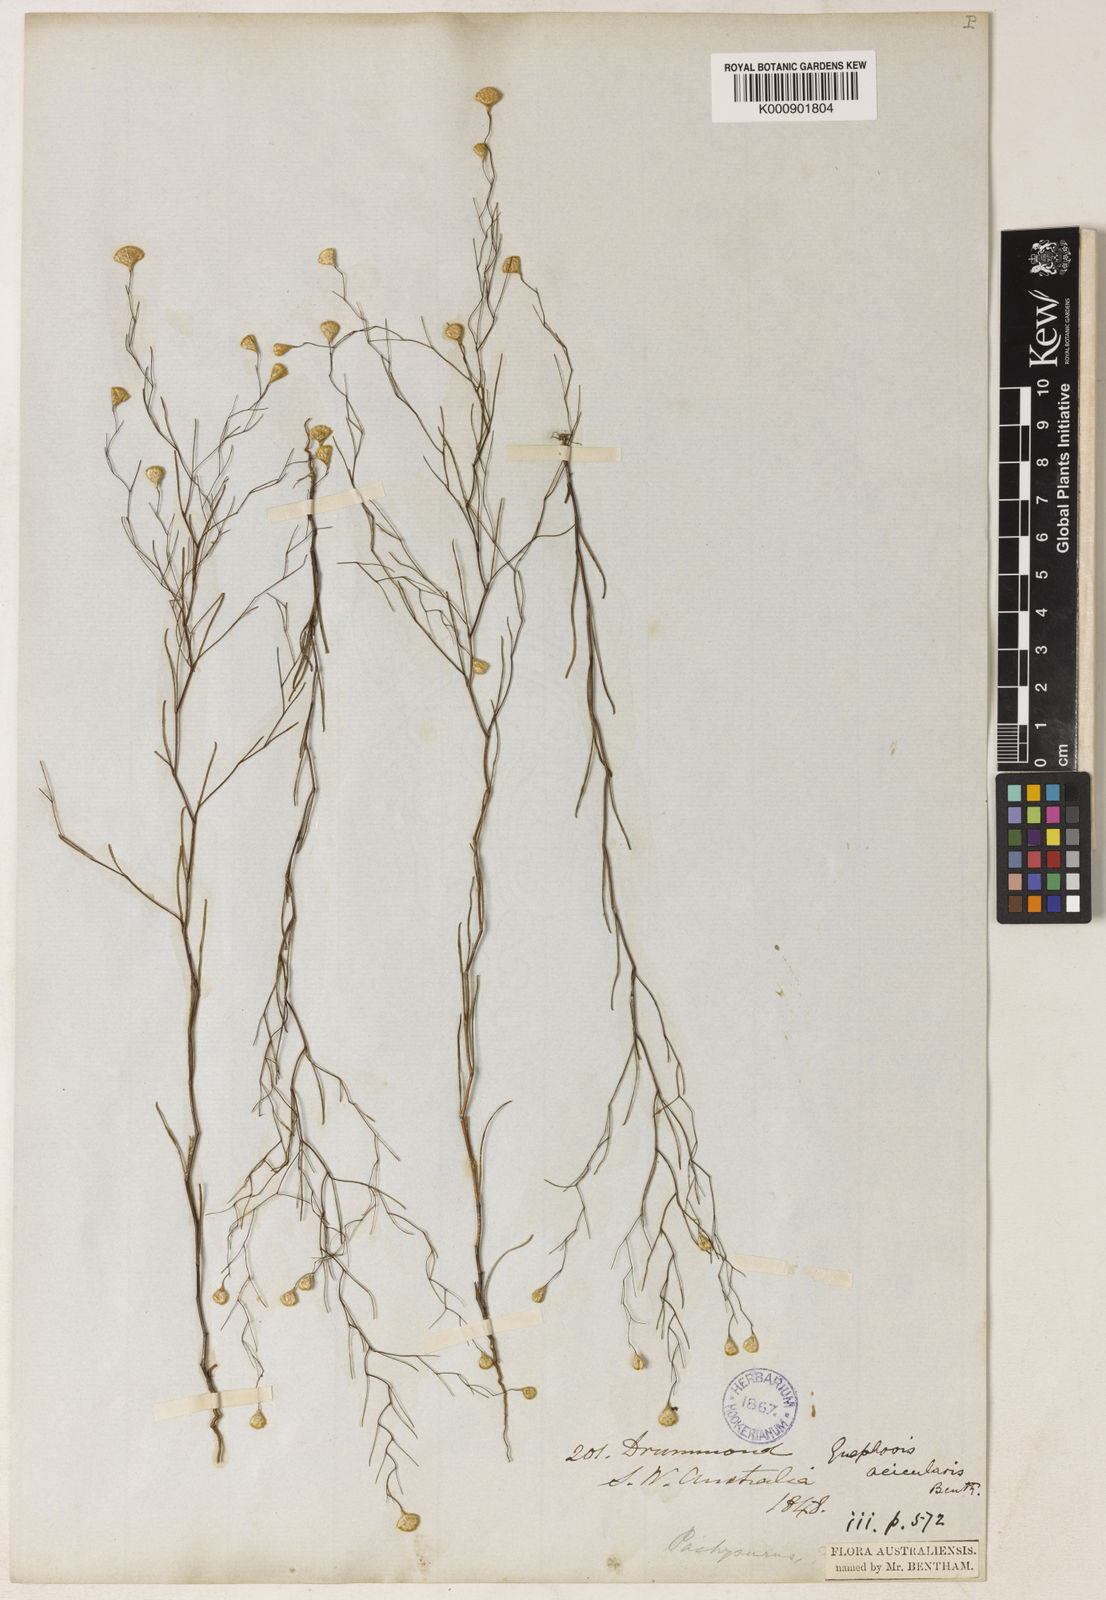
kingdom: Plantae
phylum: Tracheophyta
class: Magnoliopsida
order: Asterales
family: Asteraceae
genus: Gnephosis
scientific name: Gnephosis acicularis
